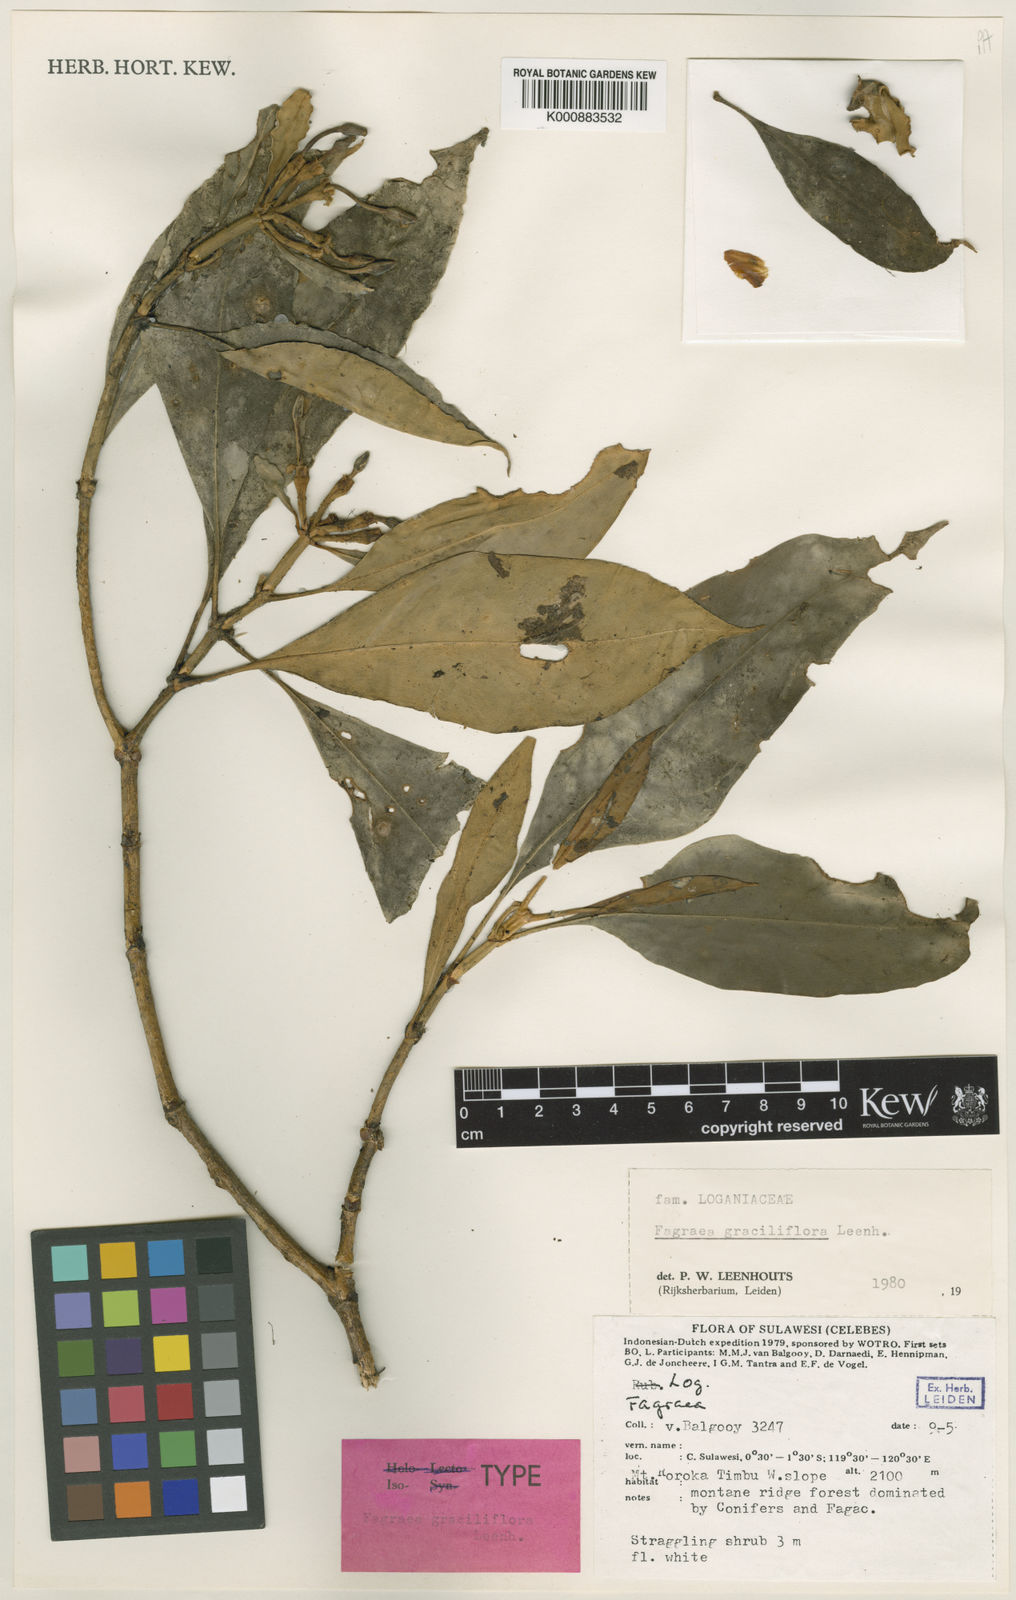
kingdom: Plantae
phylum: Tracheophyta
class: Magnoliopsida
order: Gentianales
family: Gentianaceae
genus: Fagraea
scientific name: Fagraea graciliflora
